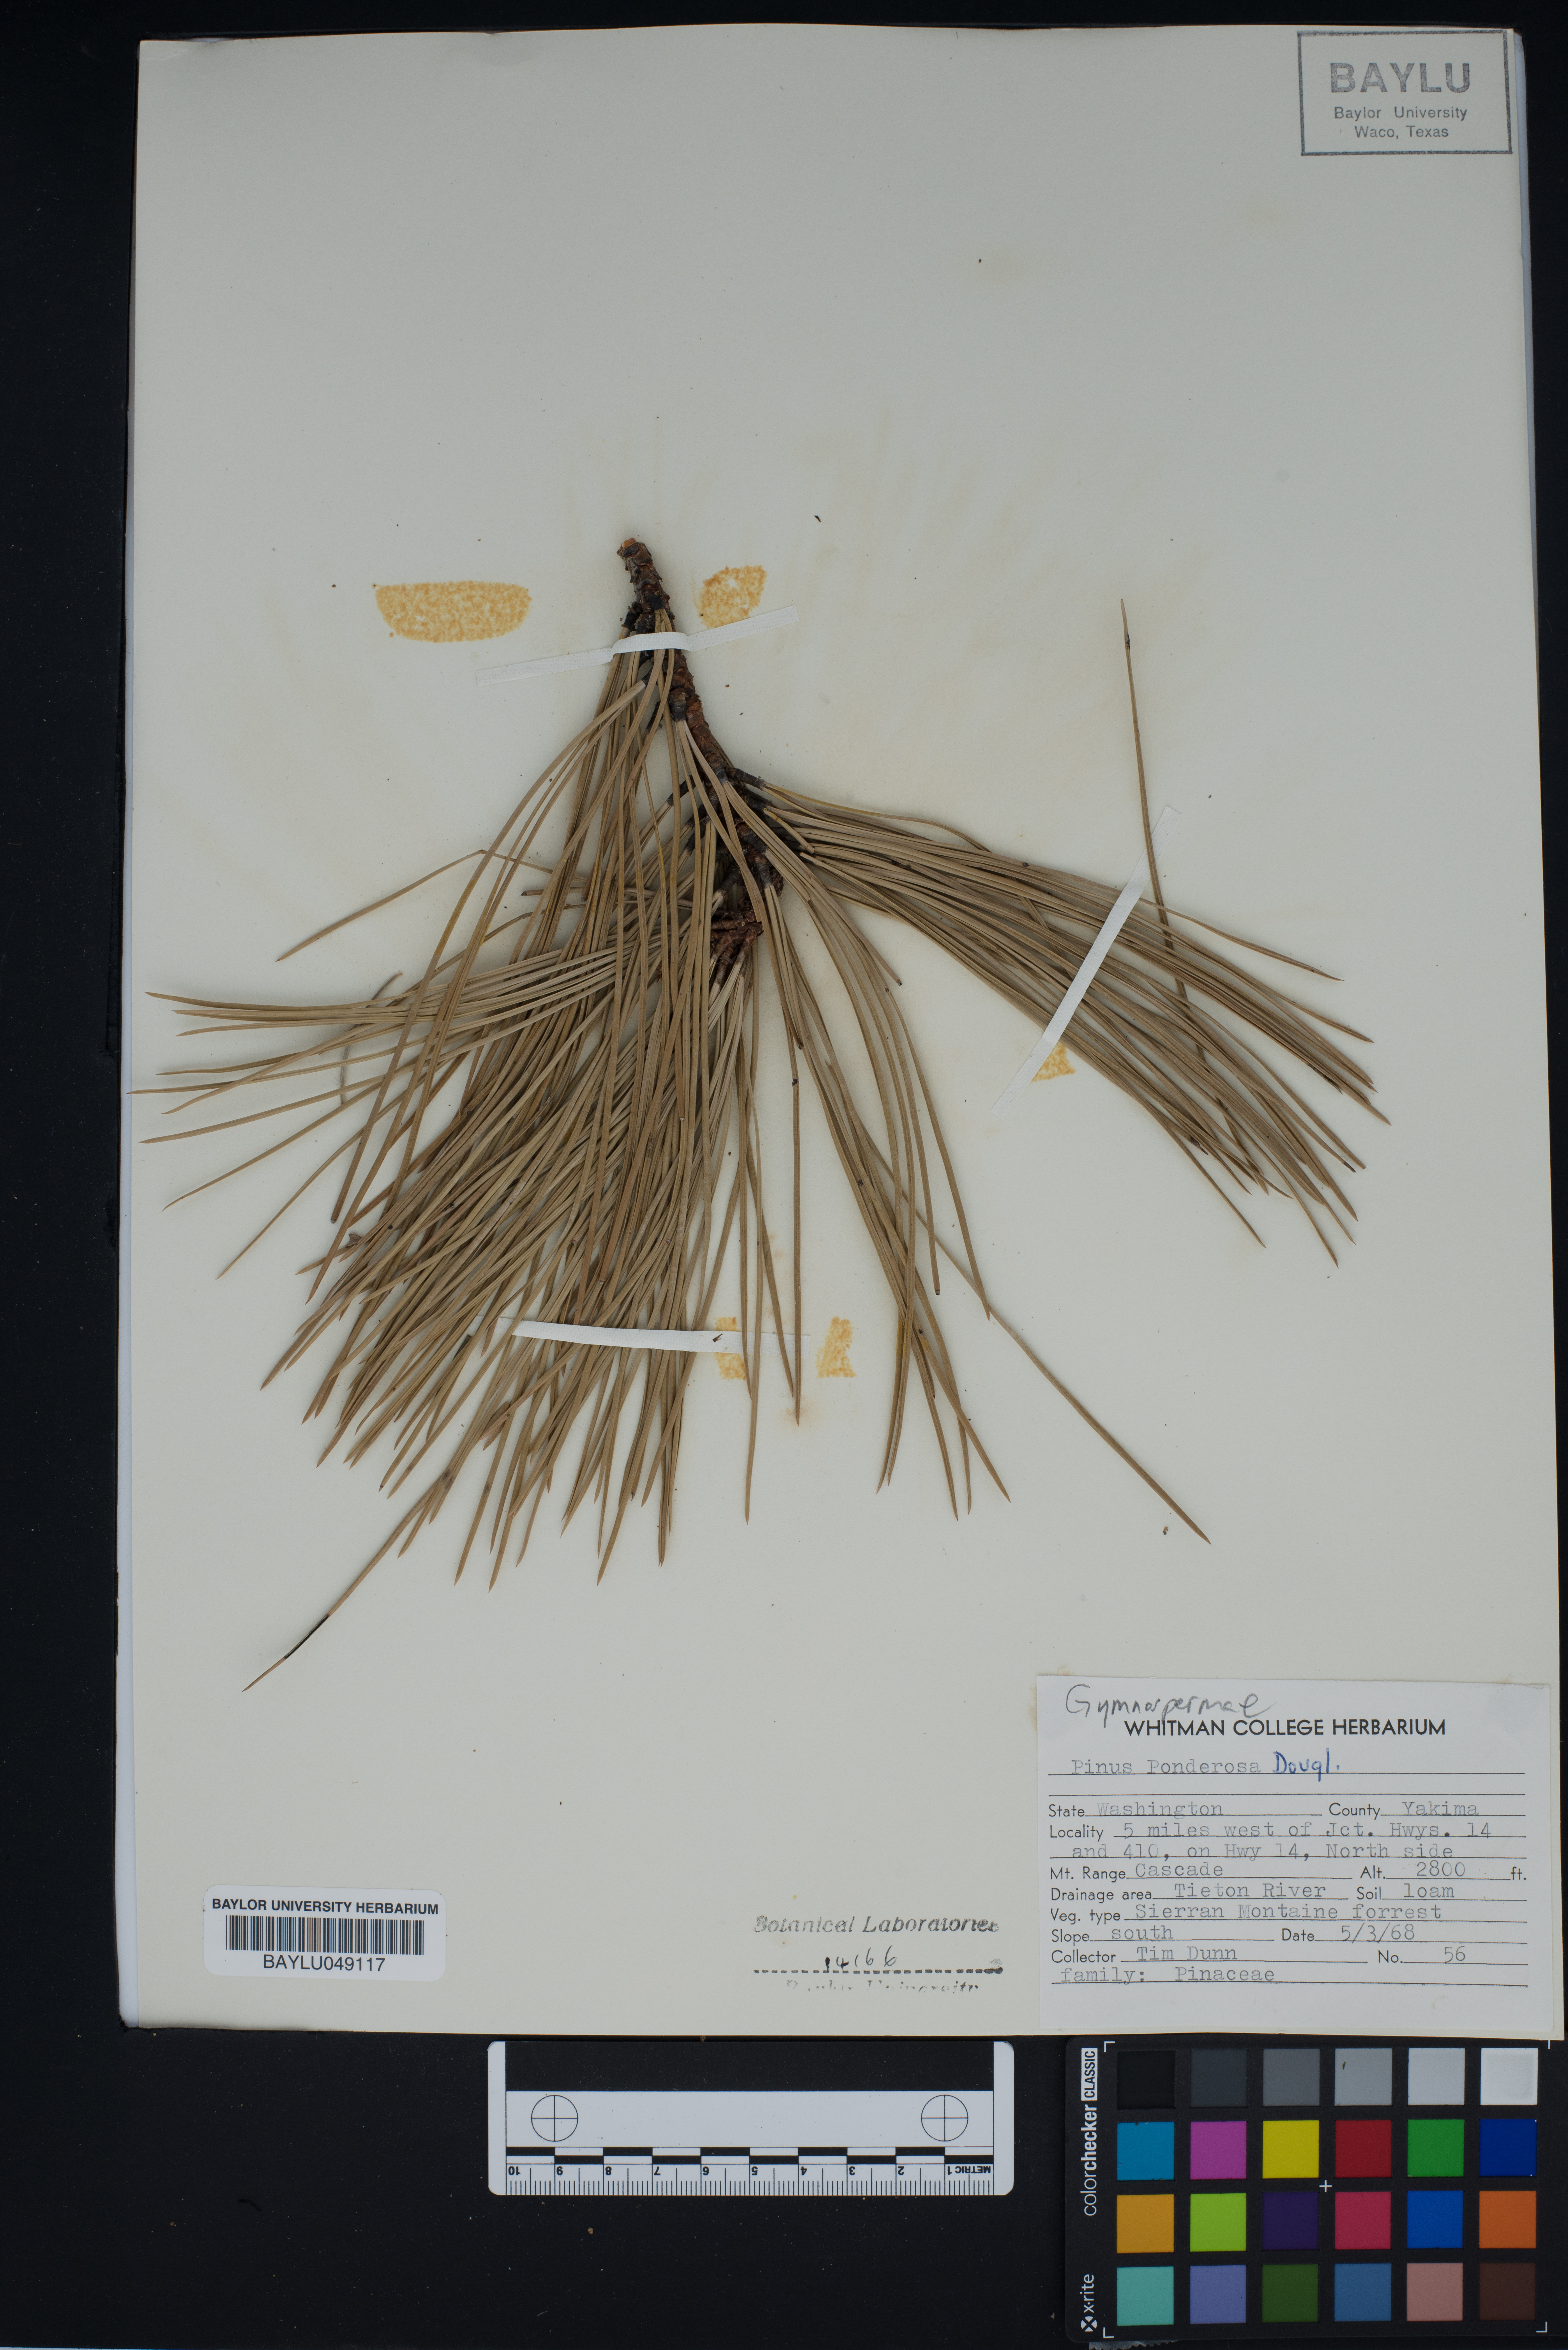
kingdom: Plantae
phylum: Tracheophyta
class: Pinopsida
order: Pinales
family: Pinaceae
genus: Pinus
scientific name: Pinus ponderosa
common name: Western yellow-pine
